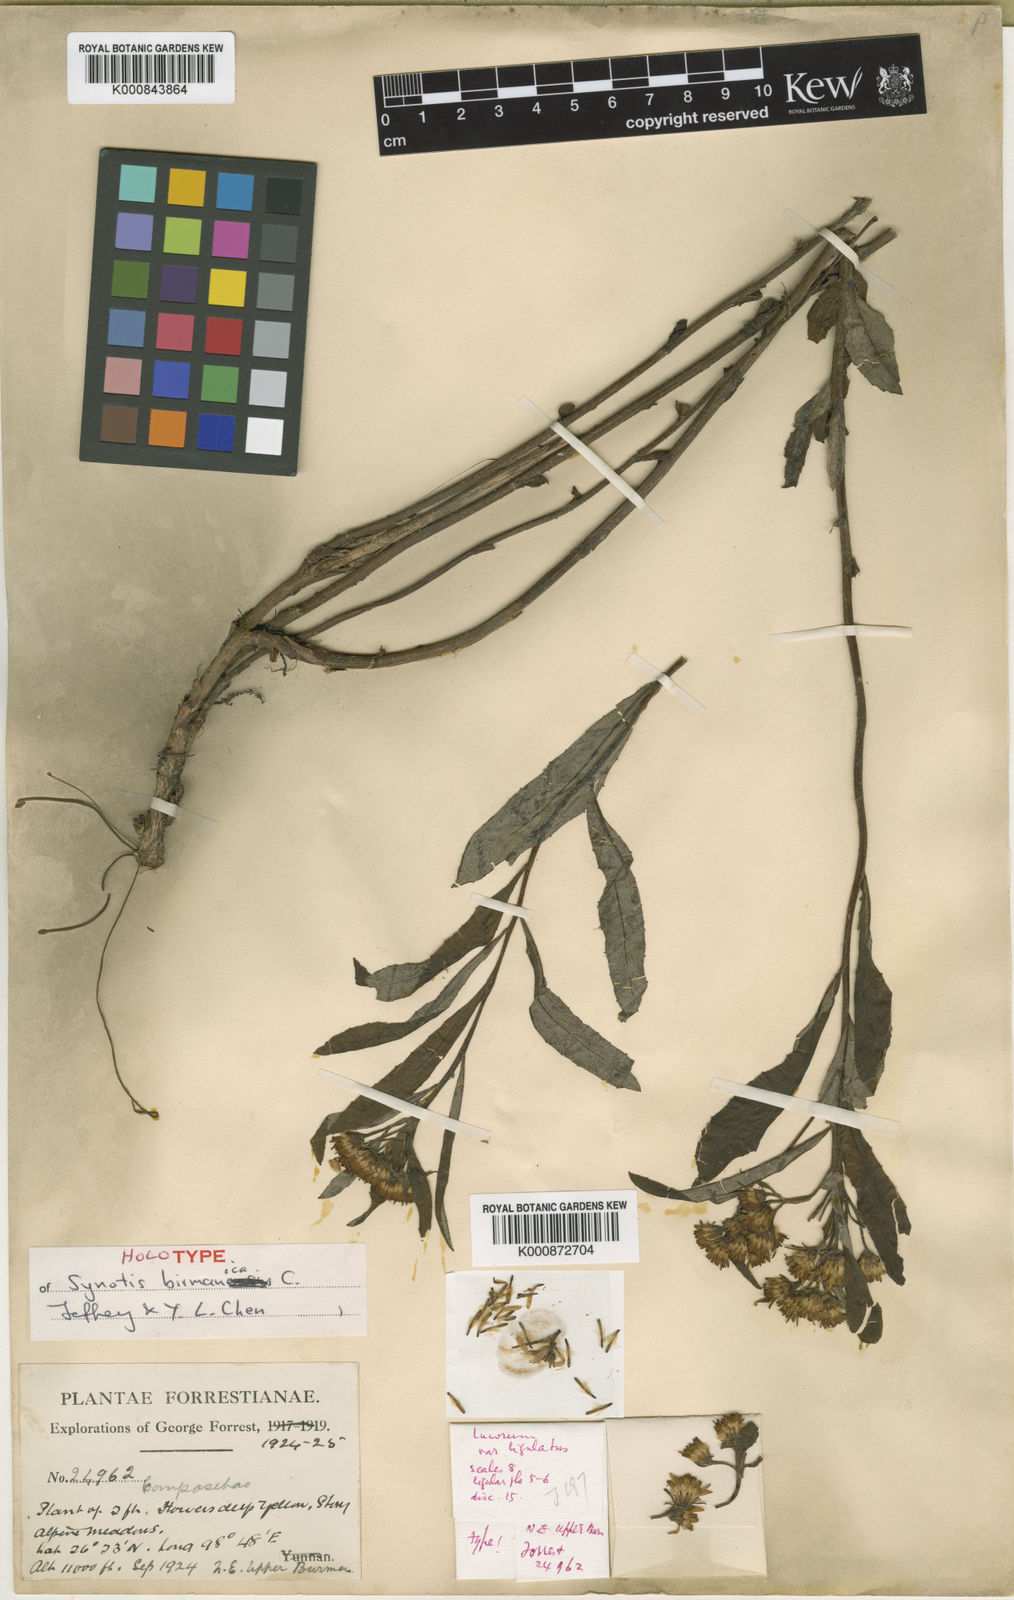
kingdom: Plantae
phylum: Tracheophyta
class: Magnoliopsida
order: Asterales
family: Asteraceae
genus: Synotis
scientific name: Synotis birmanica
